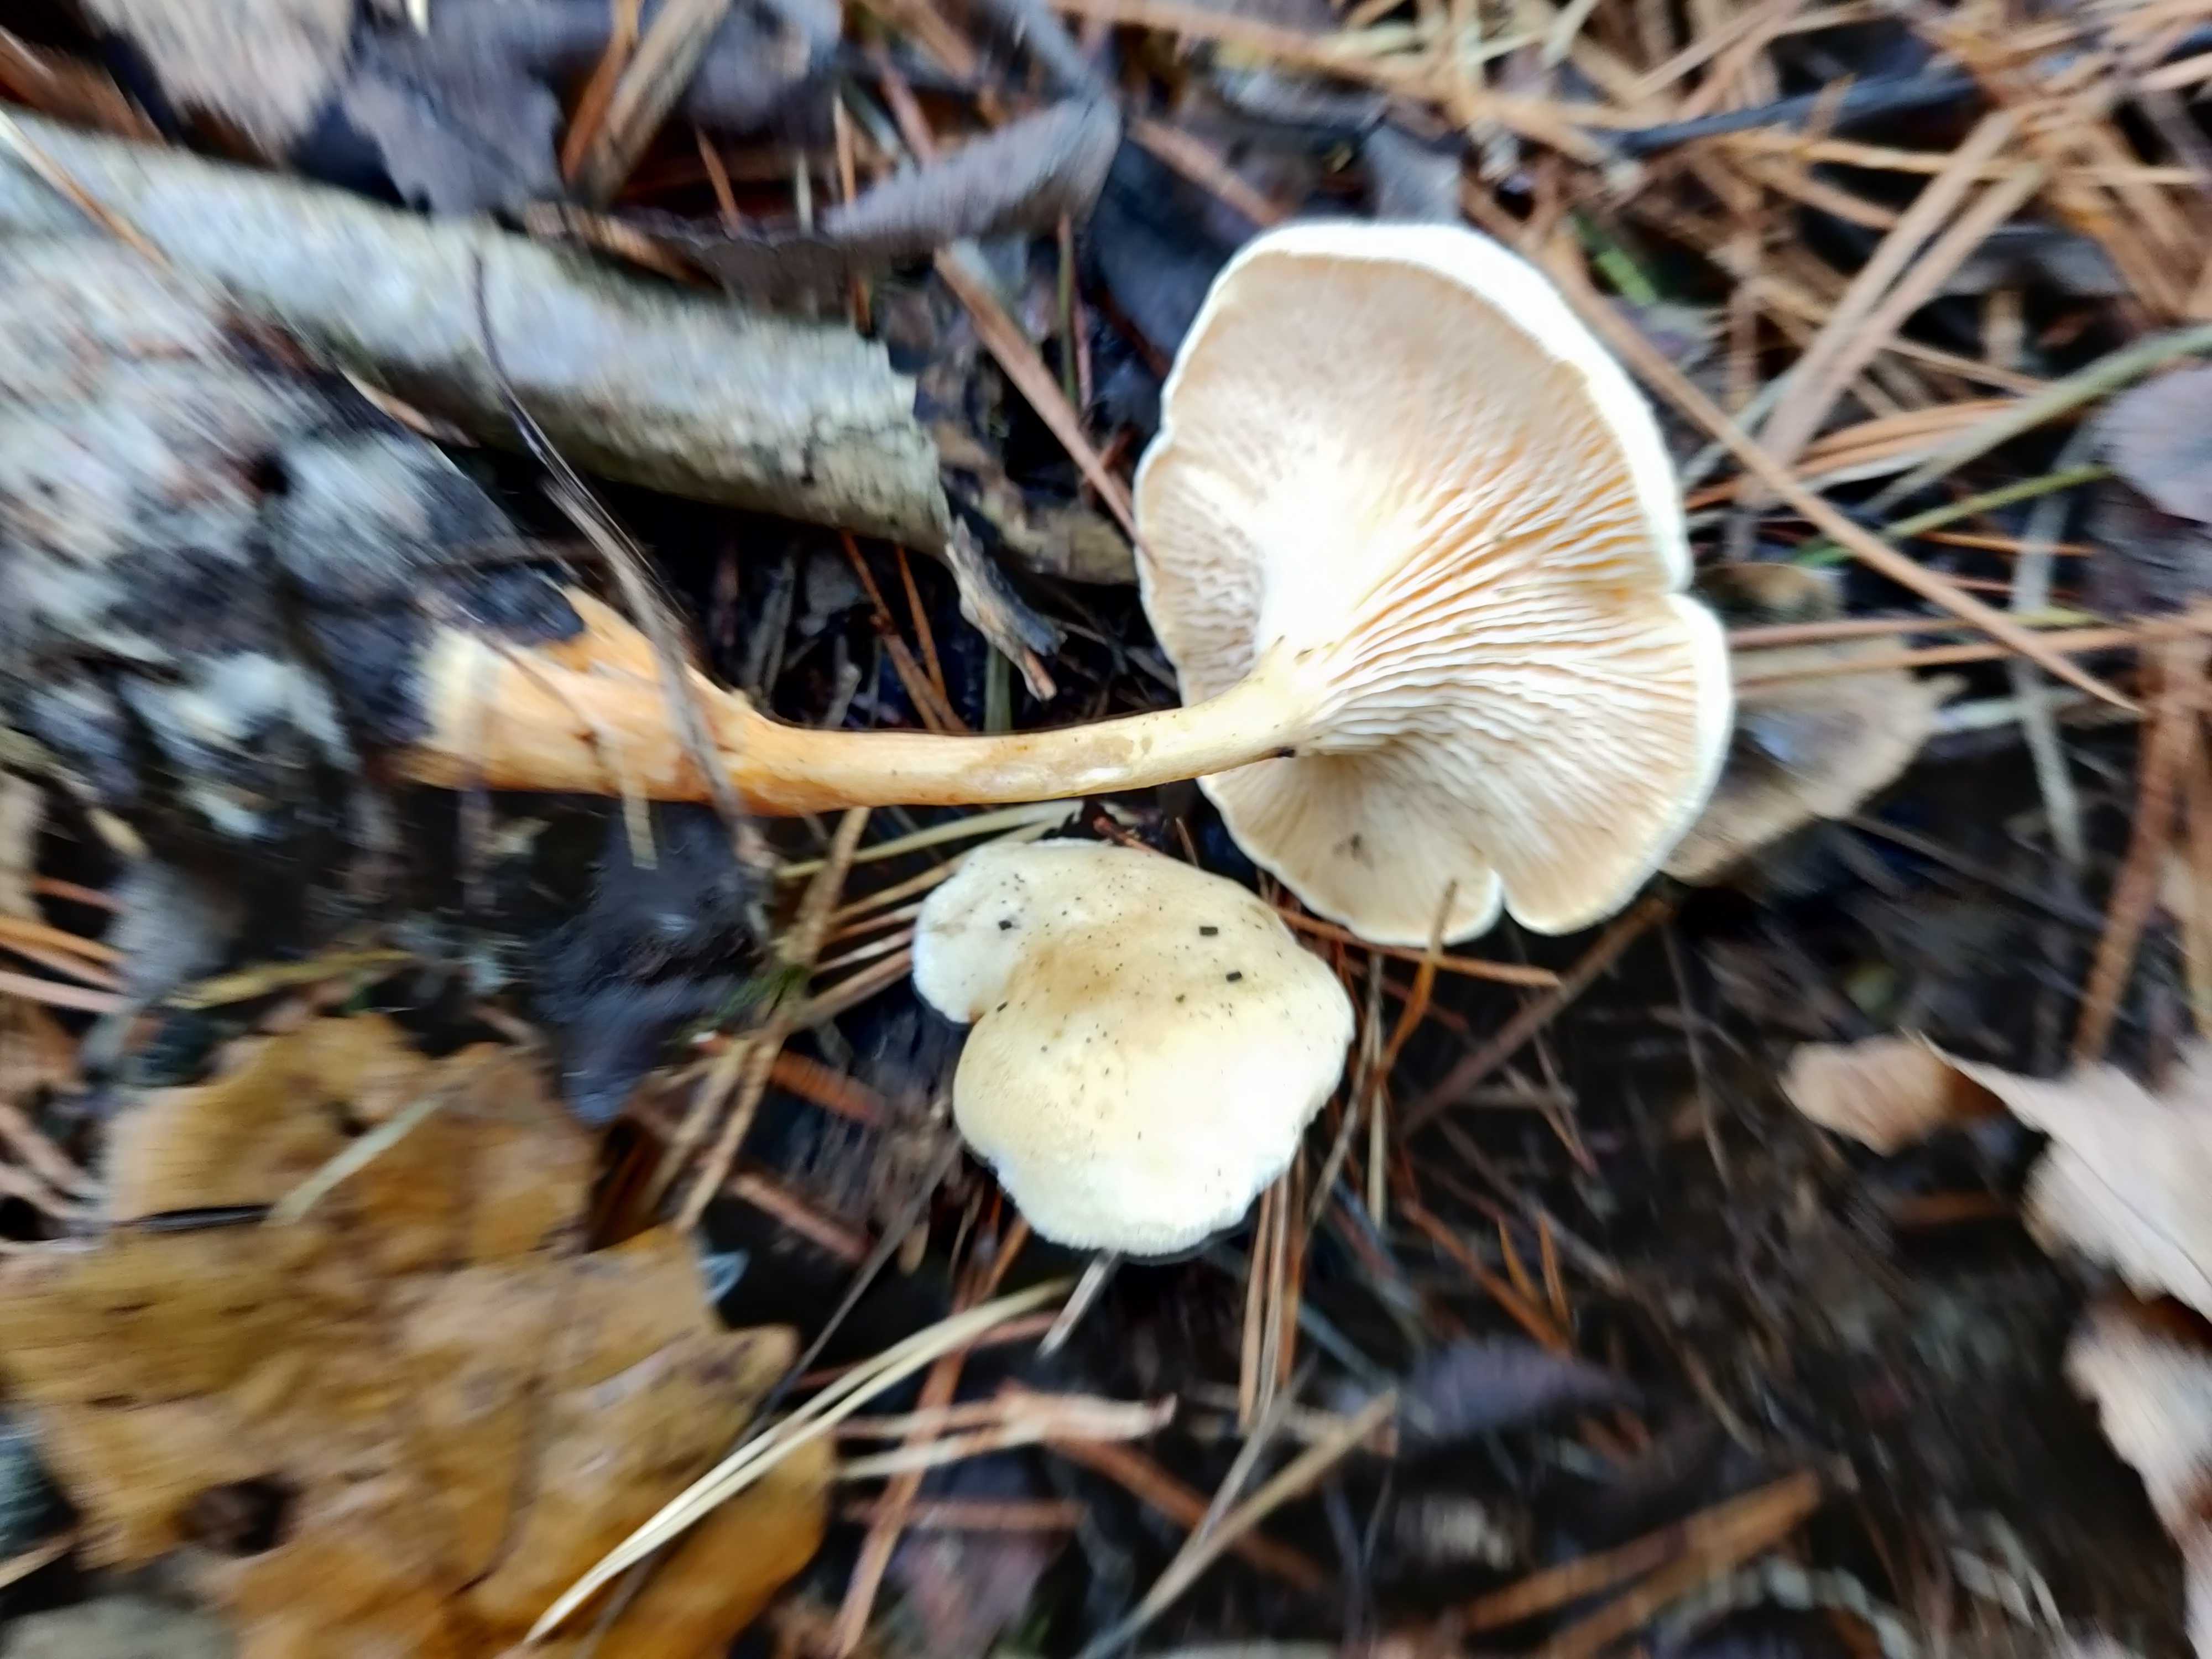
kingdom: Fungi
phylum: Basidiomycota
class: Agaricomycetes
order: Boletales
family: Hygrophoropsidaceae
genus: Hygrophoropsis
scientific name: Hygrophoropsis pallida
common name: bleg orangekantarel
